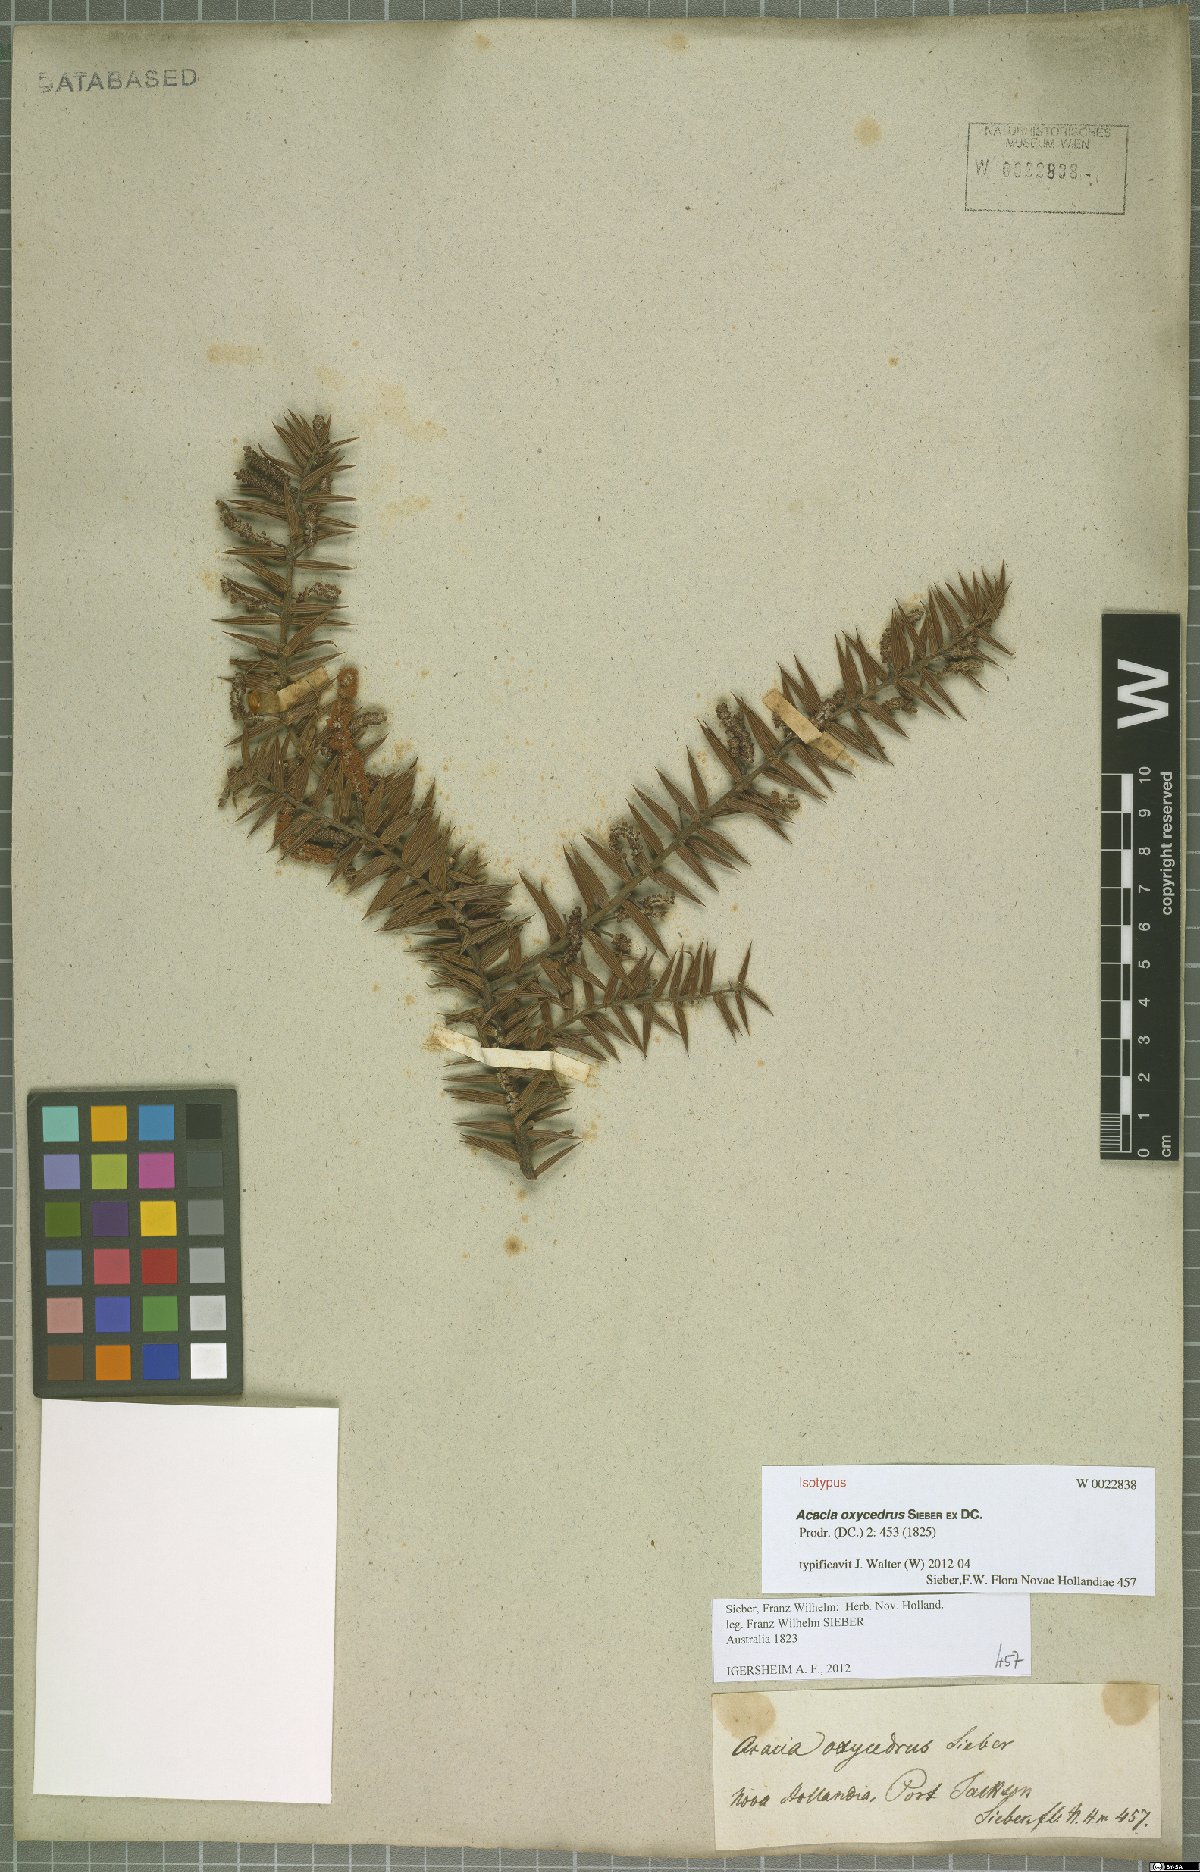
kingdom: Plantae
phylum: Tracheophyta
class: Magnoliopsida
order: Fabales
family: Fabaceae
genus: Acacia
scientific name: Acacia oxycedrus
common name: Spike wattle
